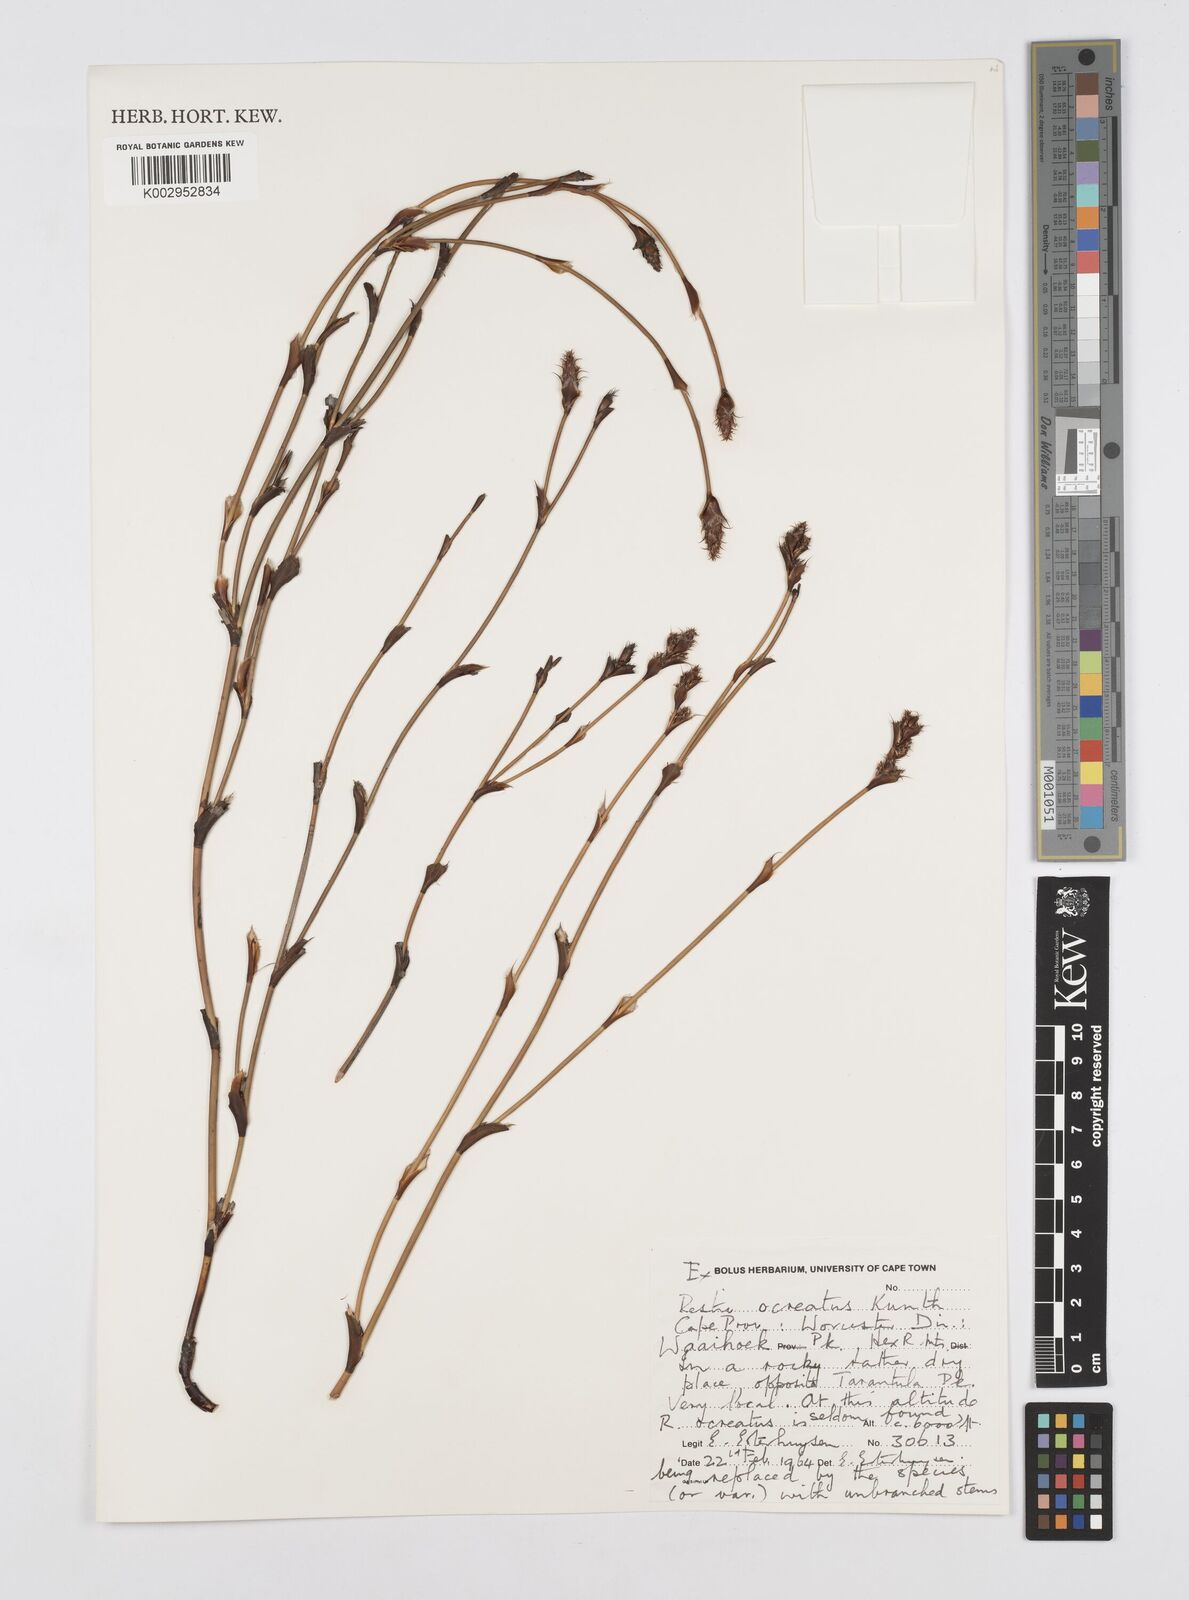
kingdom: Plantae
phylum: Tracheophyta
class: Liliopsida
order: Poales
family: Restionaceae
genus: Restio
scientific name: Restio ocreatus
